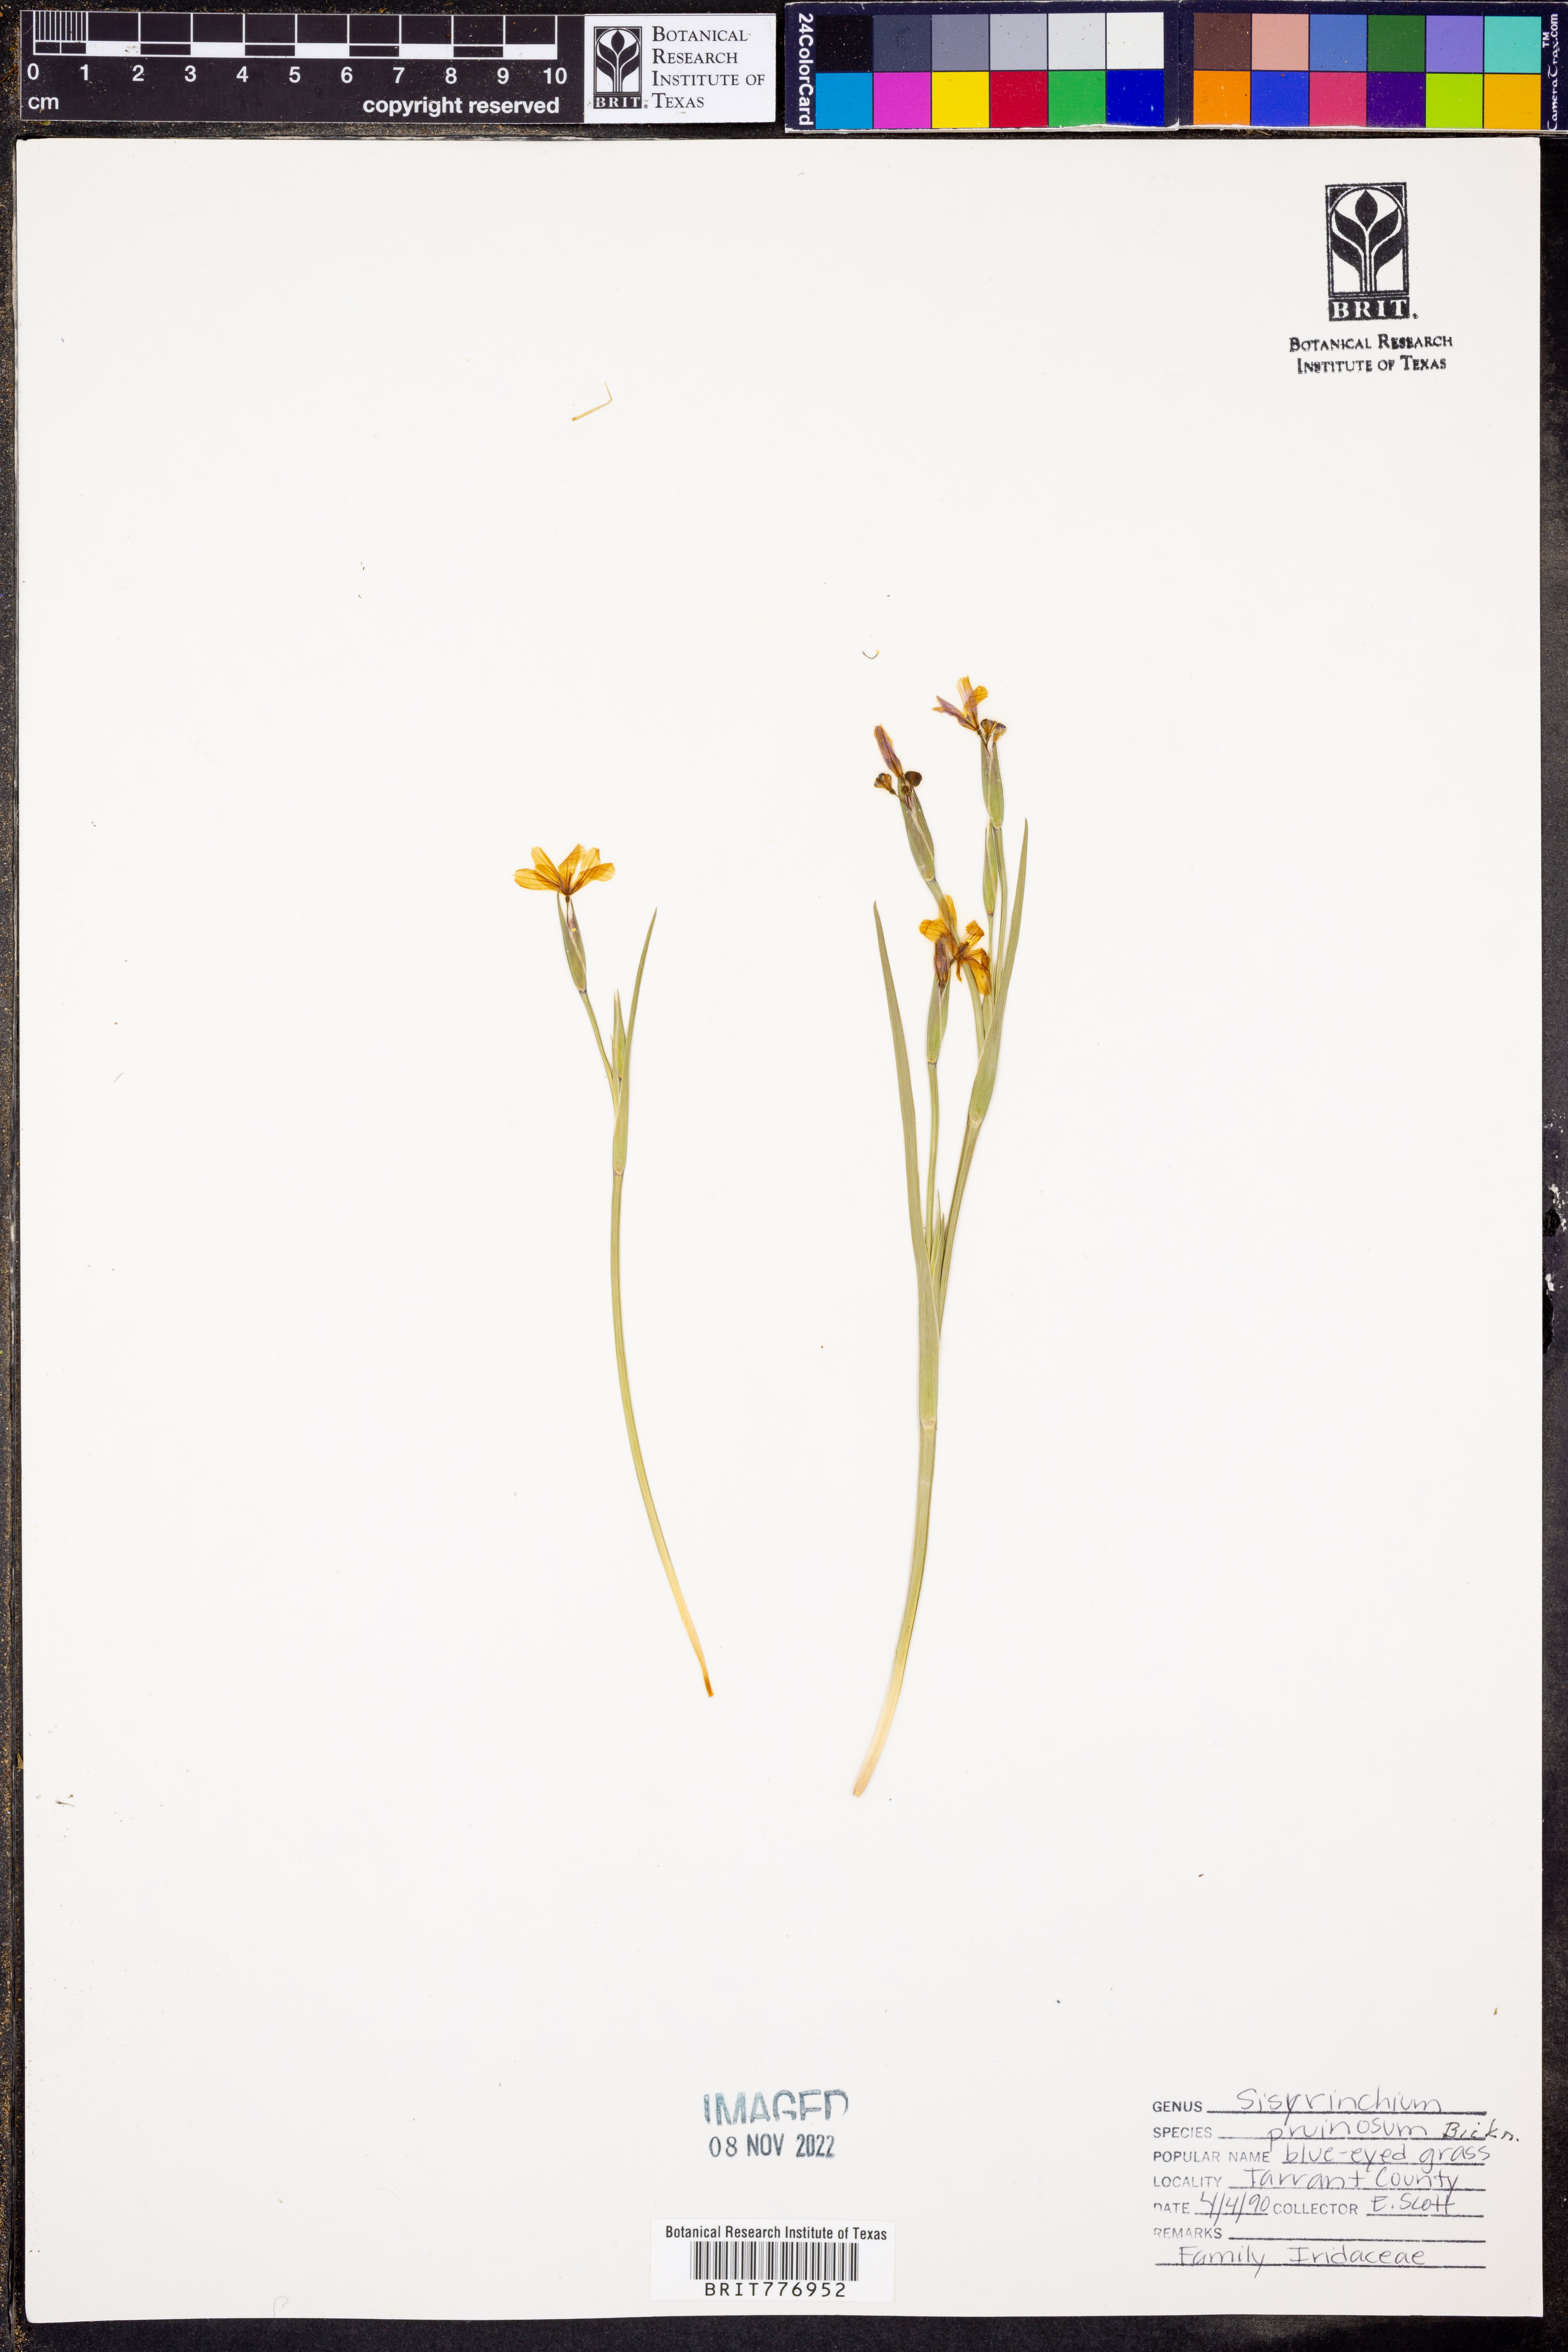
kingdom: Plantae
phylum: Tracheophyta
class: Liliopsida
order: Asparagales
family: Iridaceae
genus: Sisyrinchium
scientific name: Sisyrinchium pruinosum
